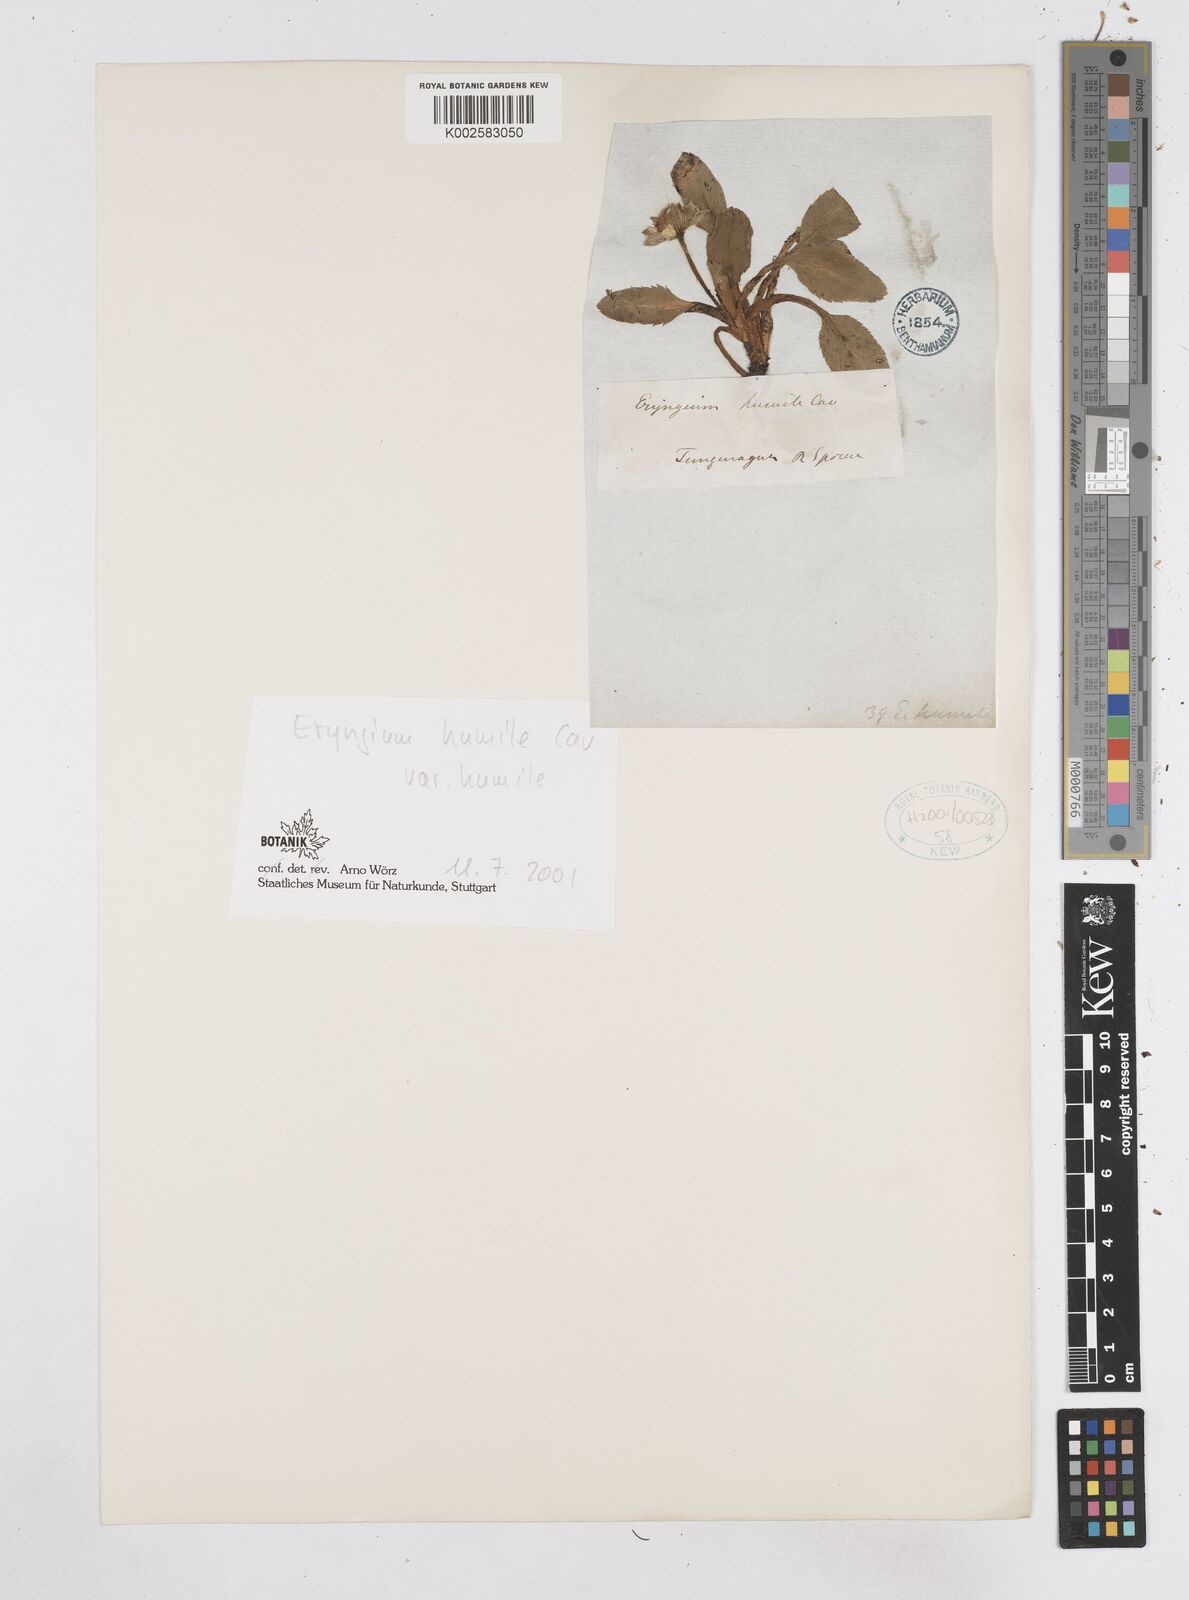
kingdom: Plantae
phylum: Tracheophyta
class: Magnoliopsida
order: Apiales
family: Apiaceae
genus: Eryngium
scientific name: Eryngium humile
